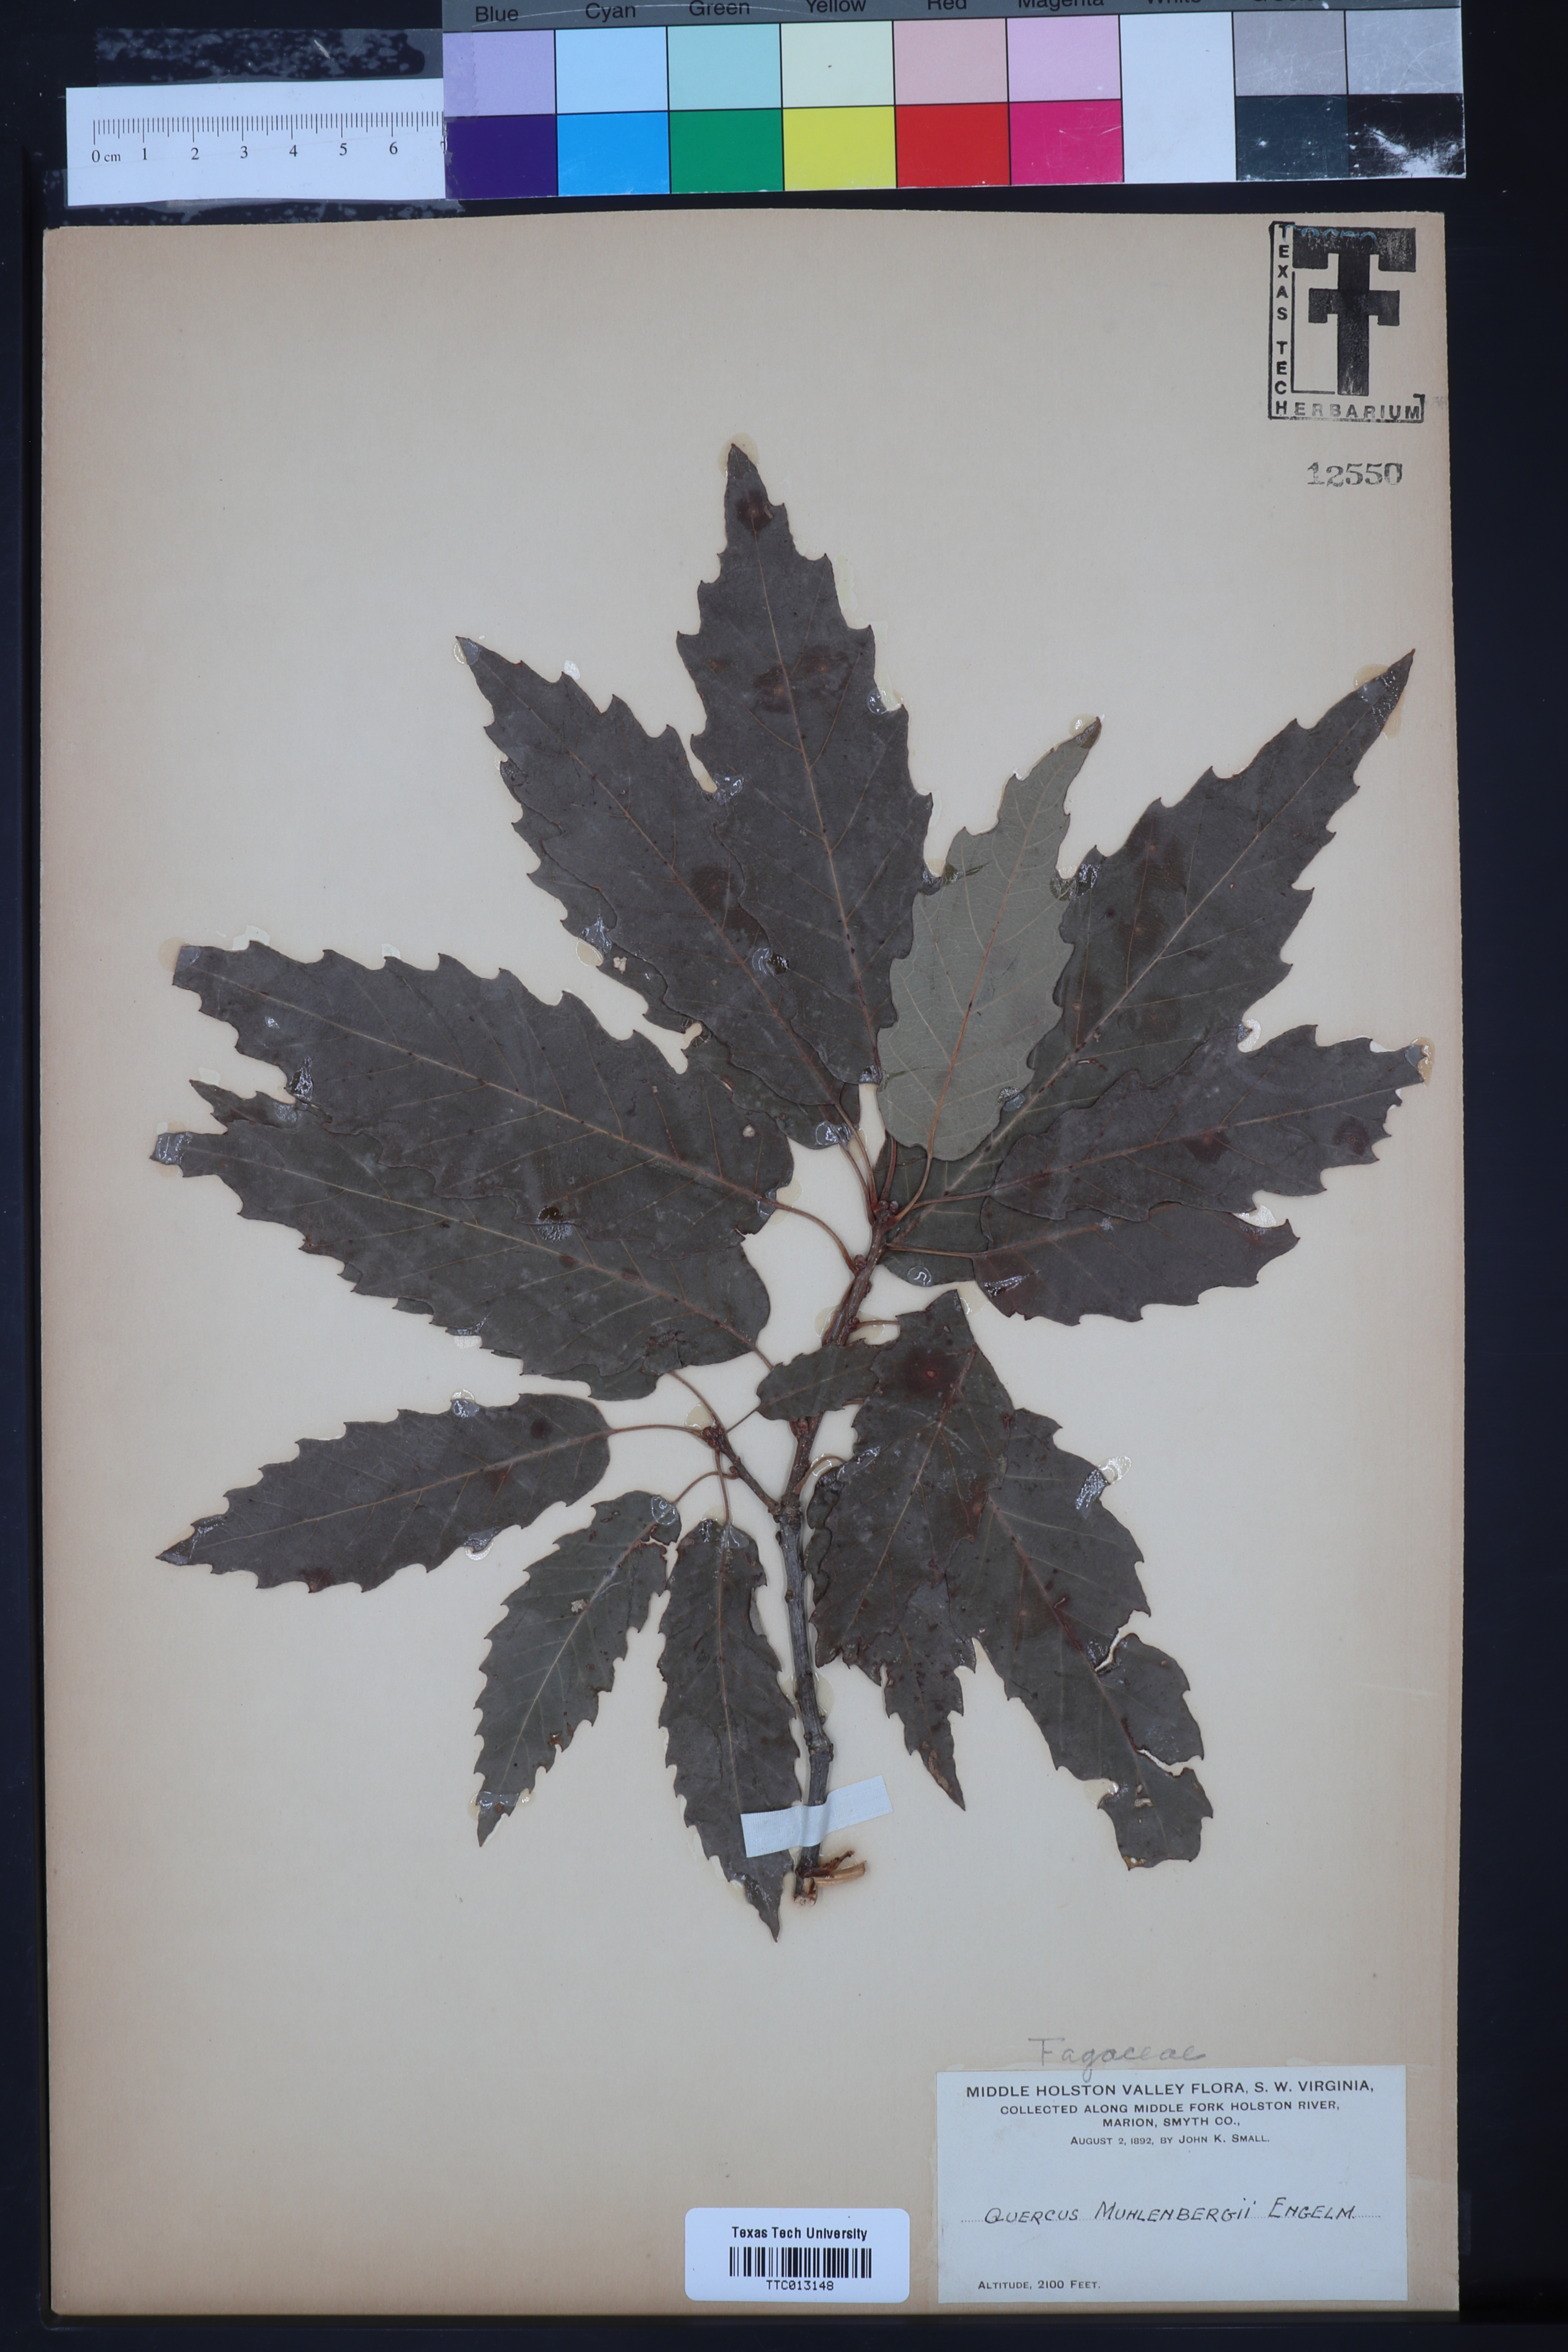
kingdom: Plantae
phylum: Tracheophyta
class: Magnoliopsida
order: Fagales
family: Fagaceae
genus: Quercus
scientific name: Quercus muehlenbergii
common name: Chinkapin oak
